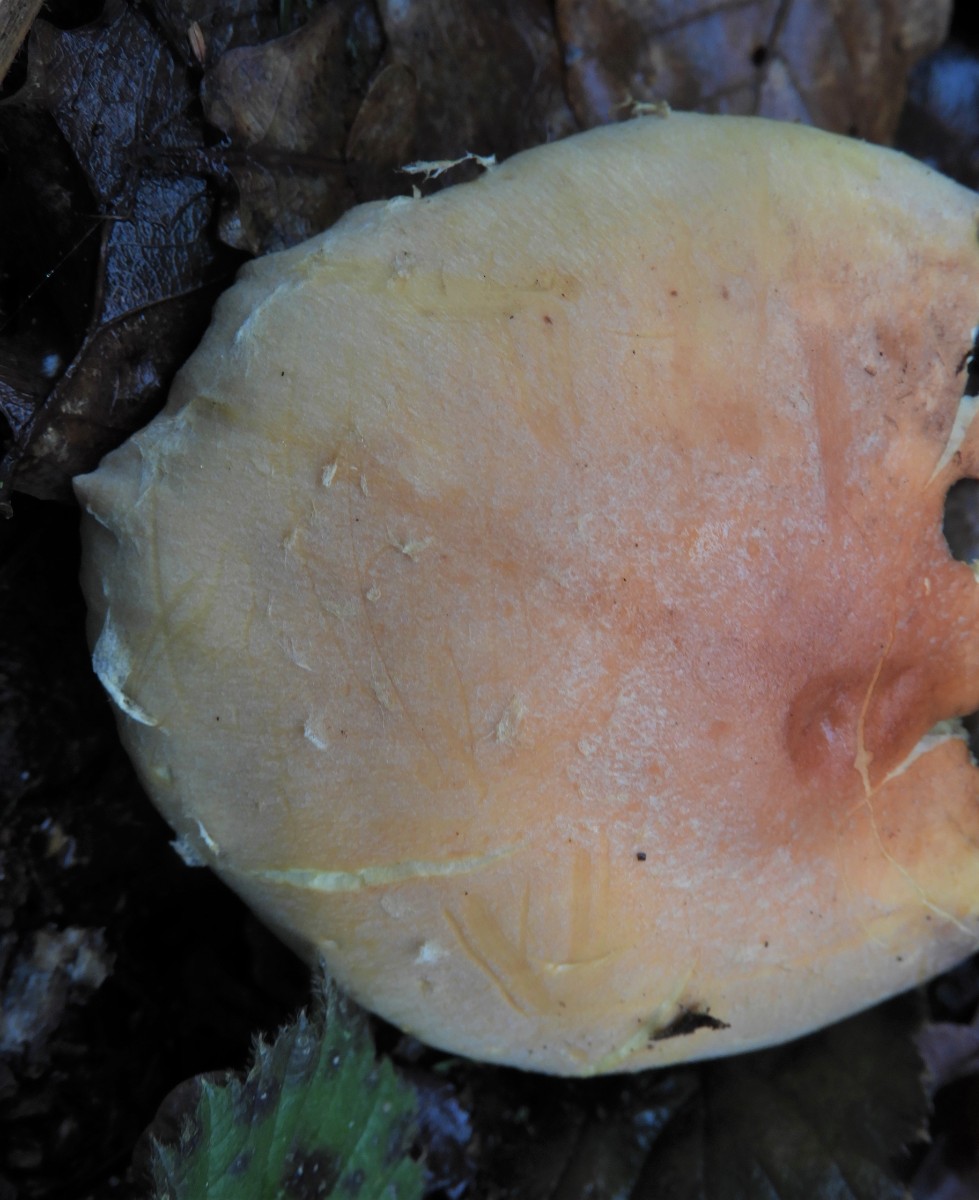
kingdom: Fungi
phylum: Basidiomycota
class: Agaricomycetes
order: Agaricales
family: Strophariaceae
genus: Hypholoma
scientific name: Hypholoma lateritium
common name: teglrød svovlhat
